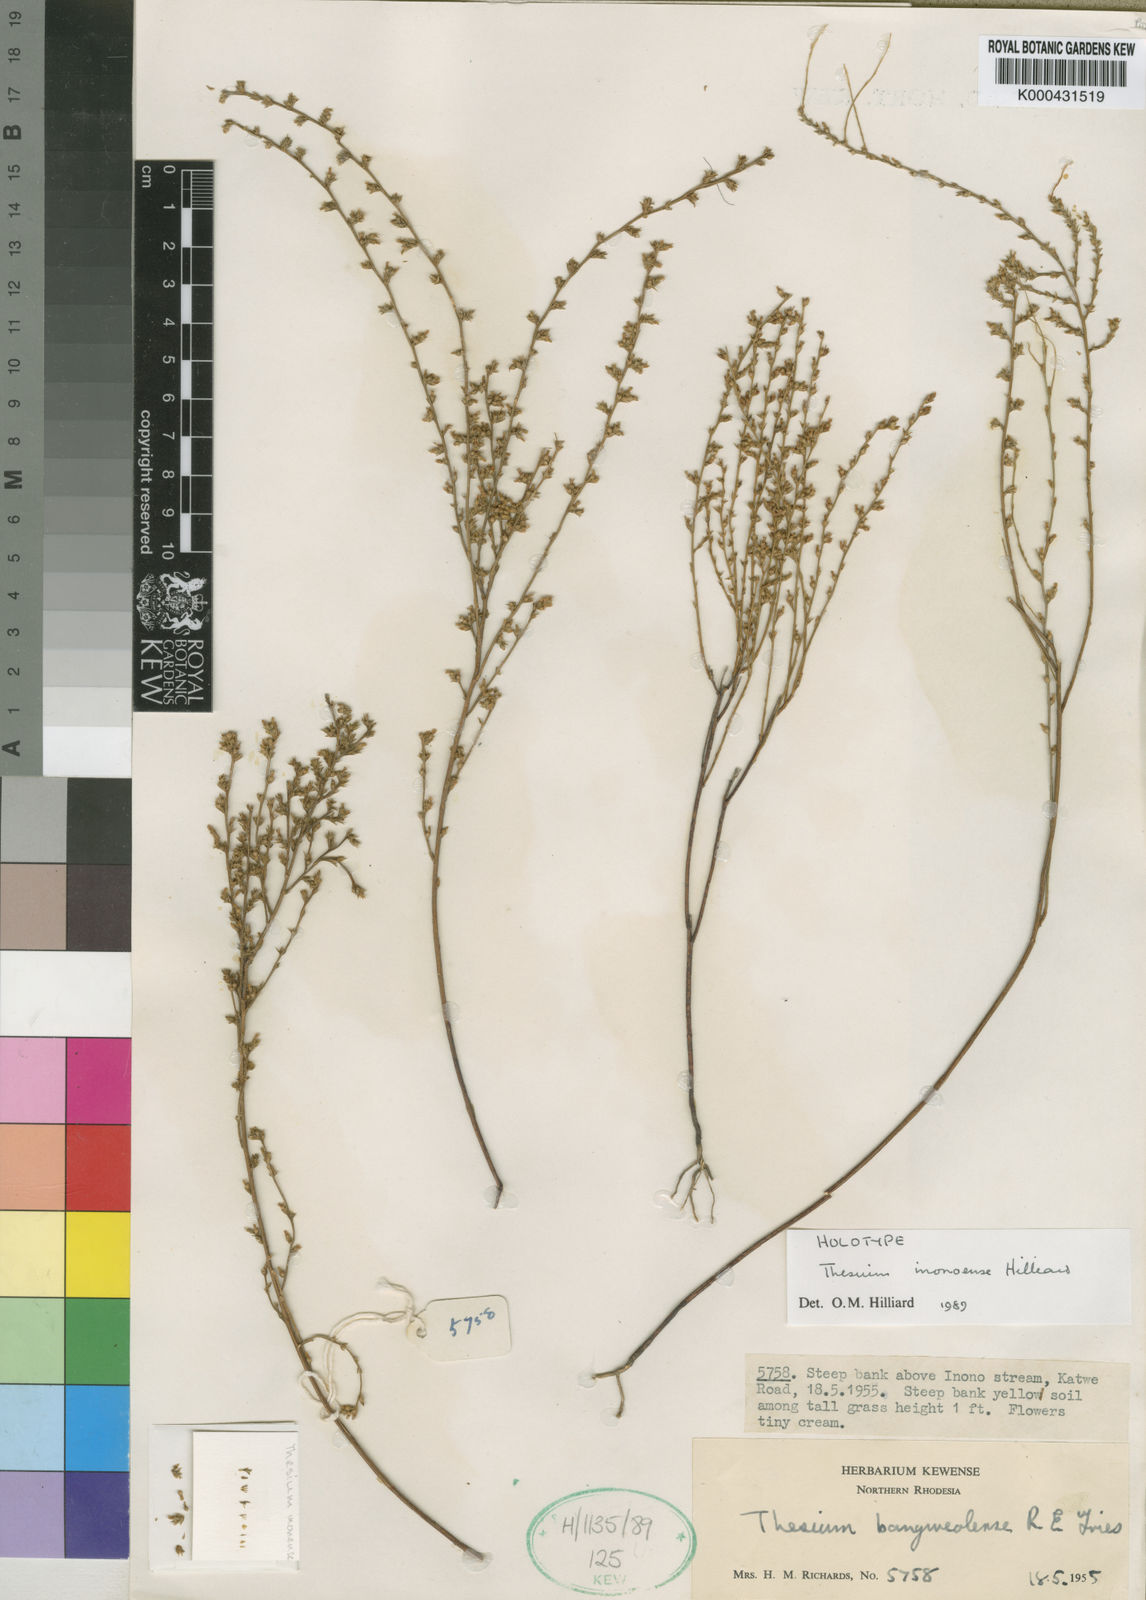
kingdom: Plantae
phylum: Tracheophyta
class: Magnoliopsida
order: Santalales
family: Thesiaceae
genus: Thesium
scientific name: Thesium inonoense
